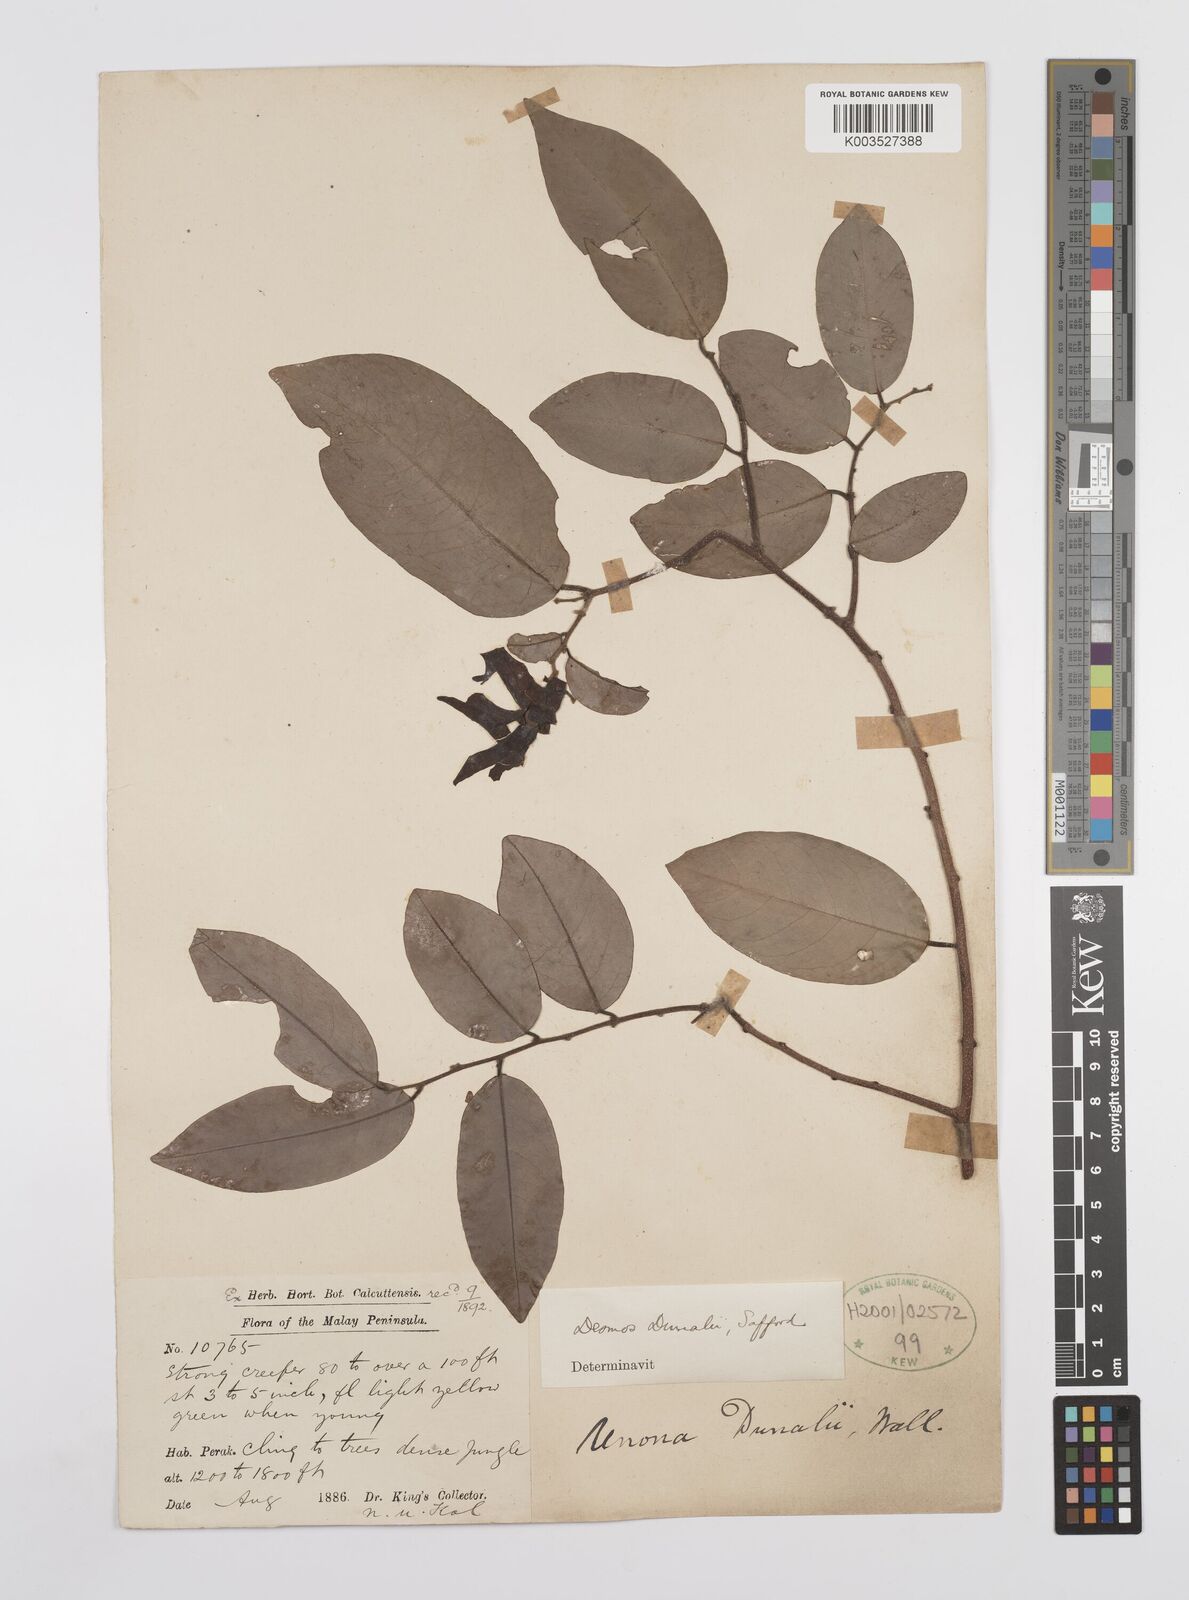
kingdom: Plantae
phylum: Tracheophyta
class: Magnoliopsida
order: Magnoliales
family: Annonaceae
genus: Desmos
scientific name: Desmos dunalii
